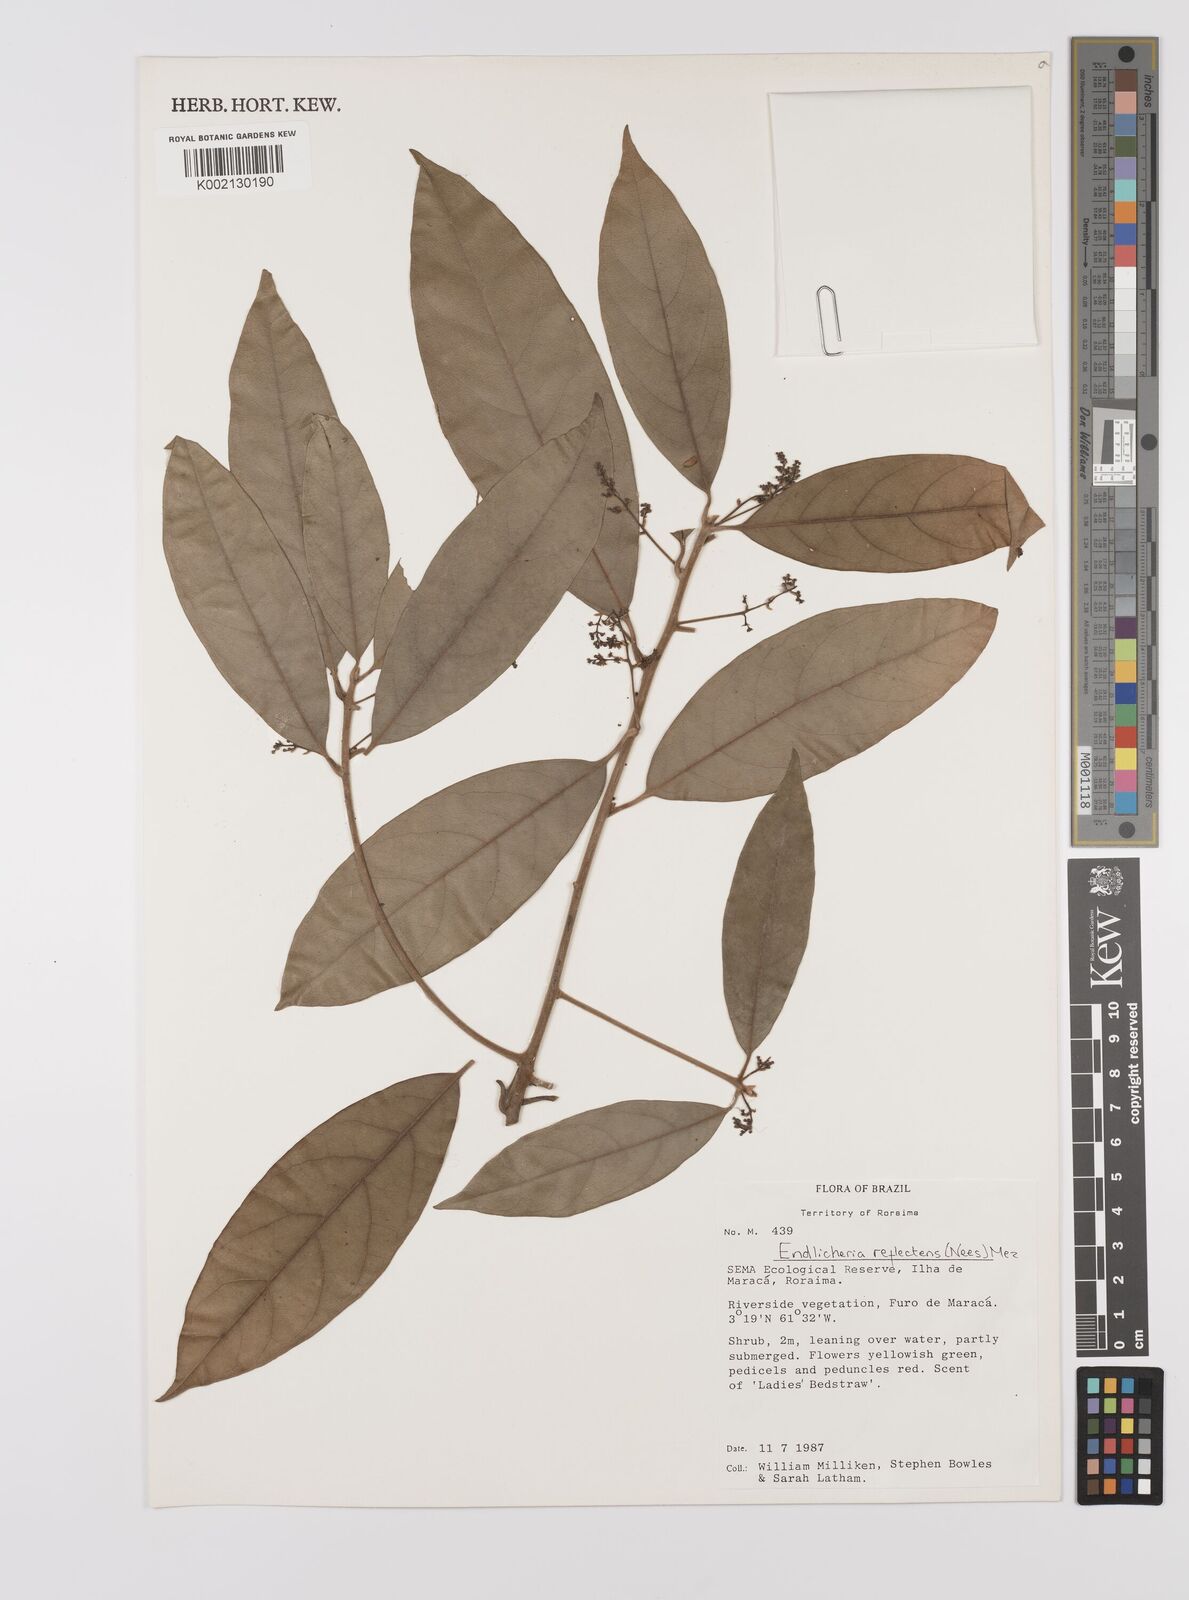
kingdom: Plantae
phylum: Tracheophyta
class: Magnoliopsida
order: Laurales
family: Lauraceae
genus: Endlicheria
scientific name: Endlicheria reflectens
